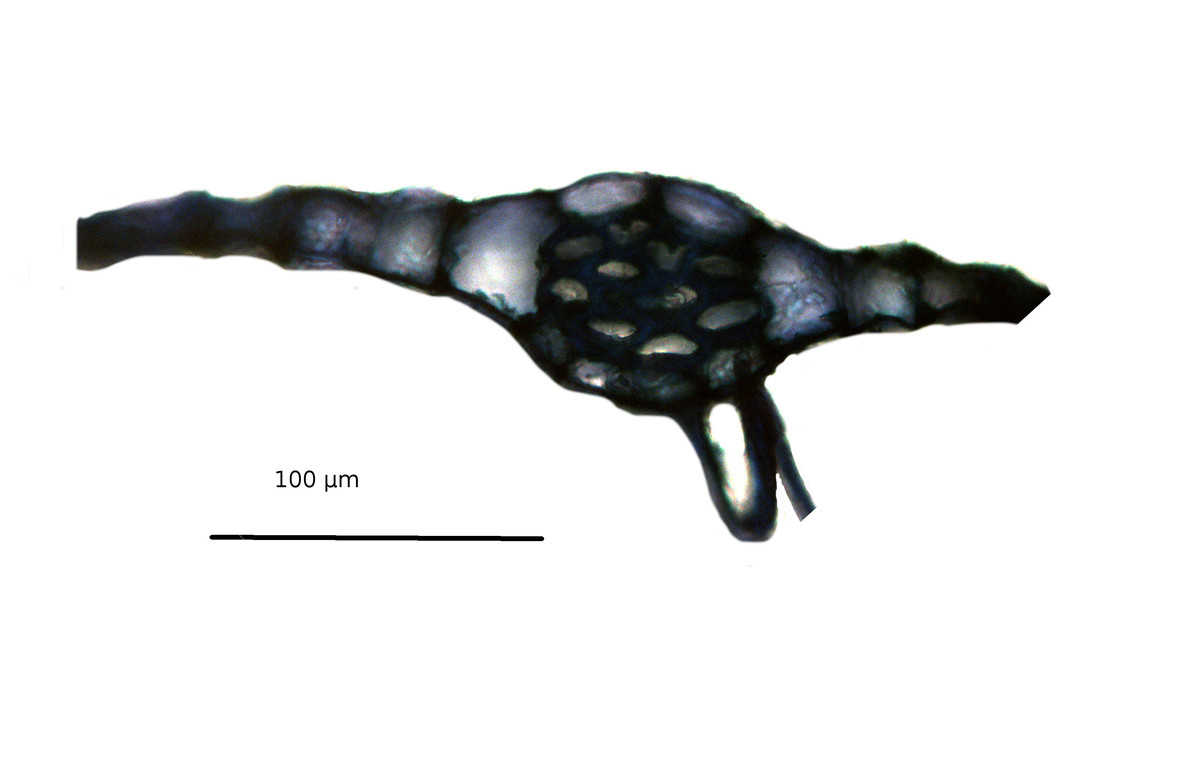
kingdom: Plantae
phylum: Marchantiophyta
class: Jungermanniopsida
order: Metzgeriales
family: Metzgeriaceae
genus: Metzgeria
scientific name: Metzgeria madagassa
